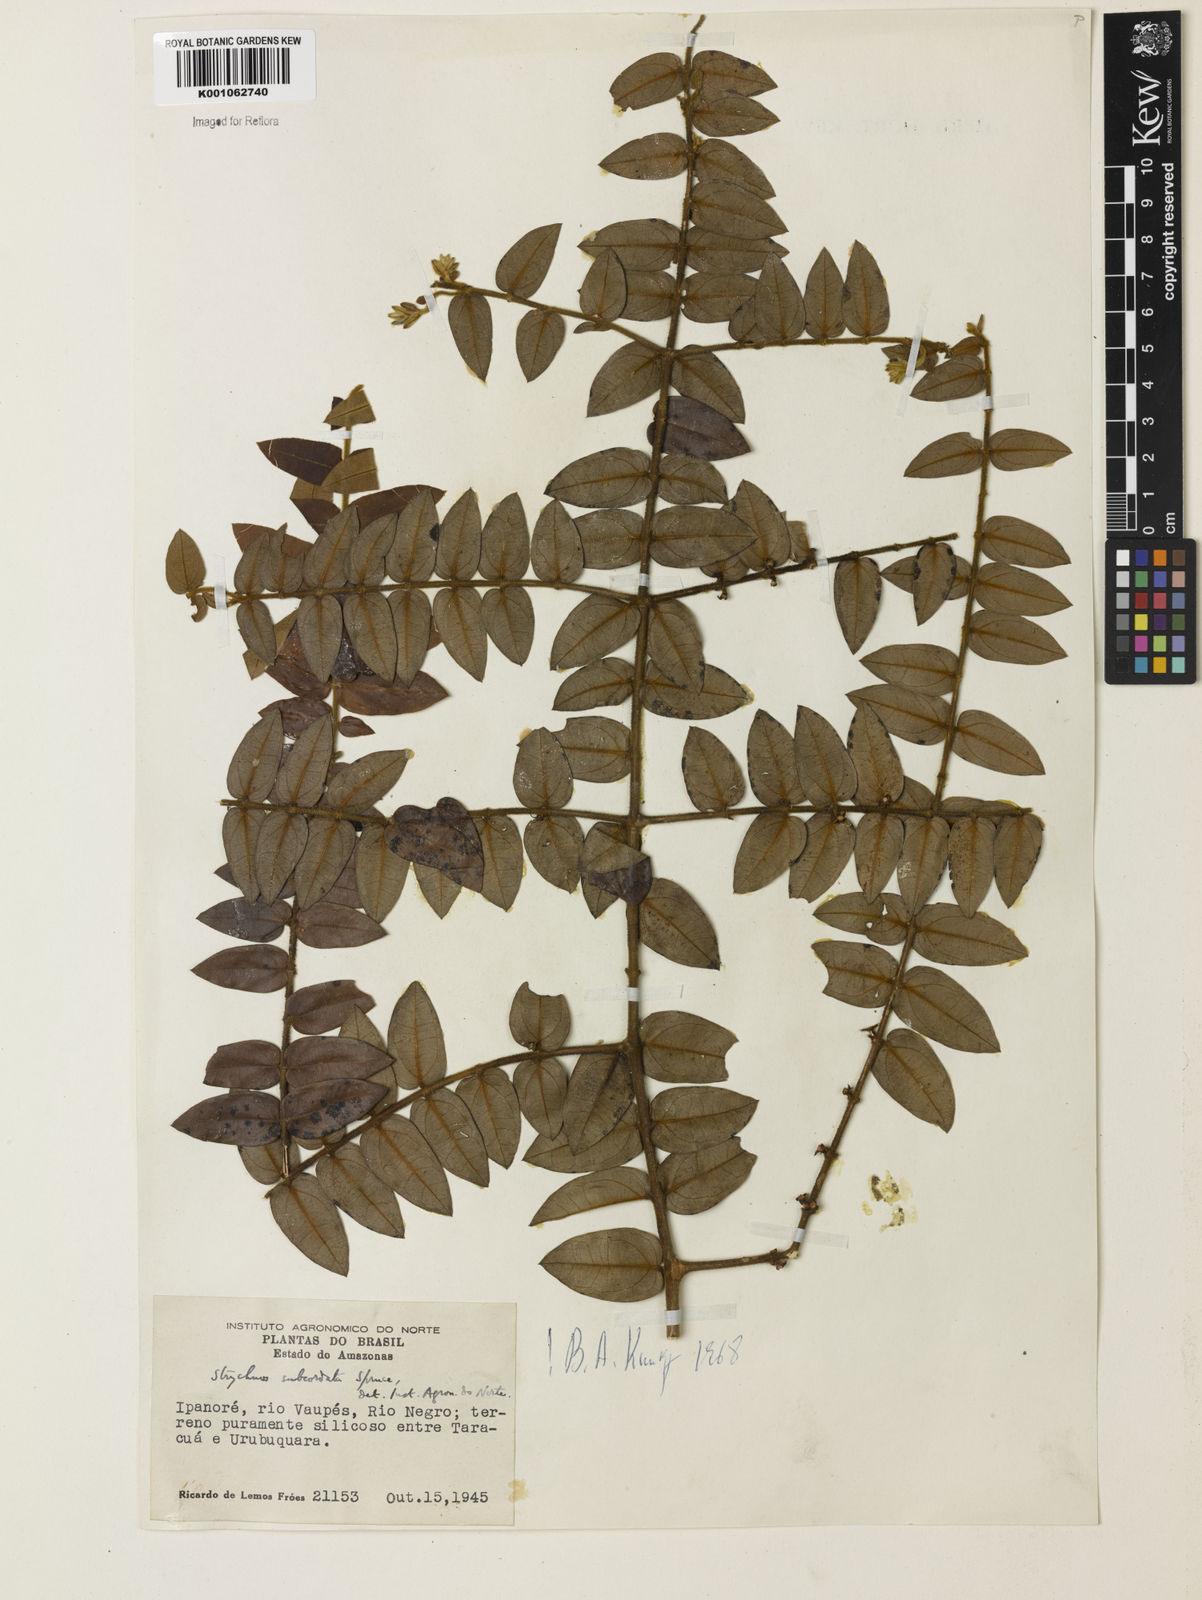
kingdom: Plantae
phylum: Tracheophyta
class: Magnoliopsida
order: Gentianales
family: Loganiaceae
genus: Strychnos
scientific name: Strychnos subcordata
